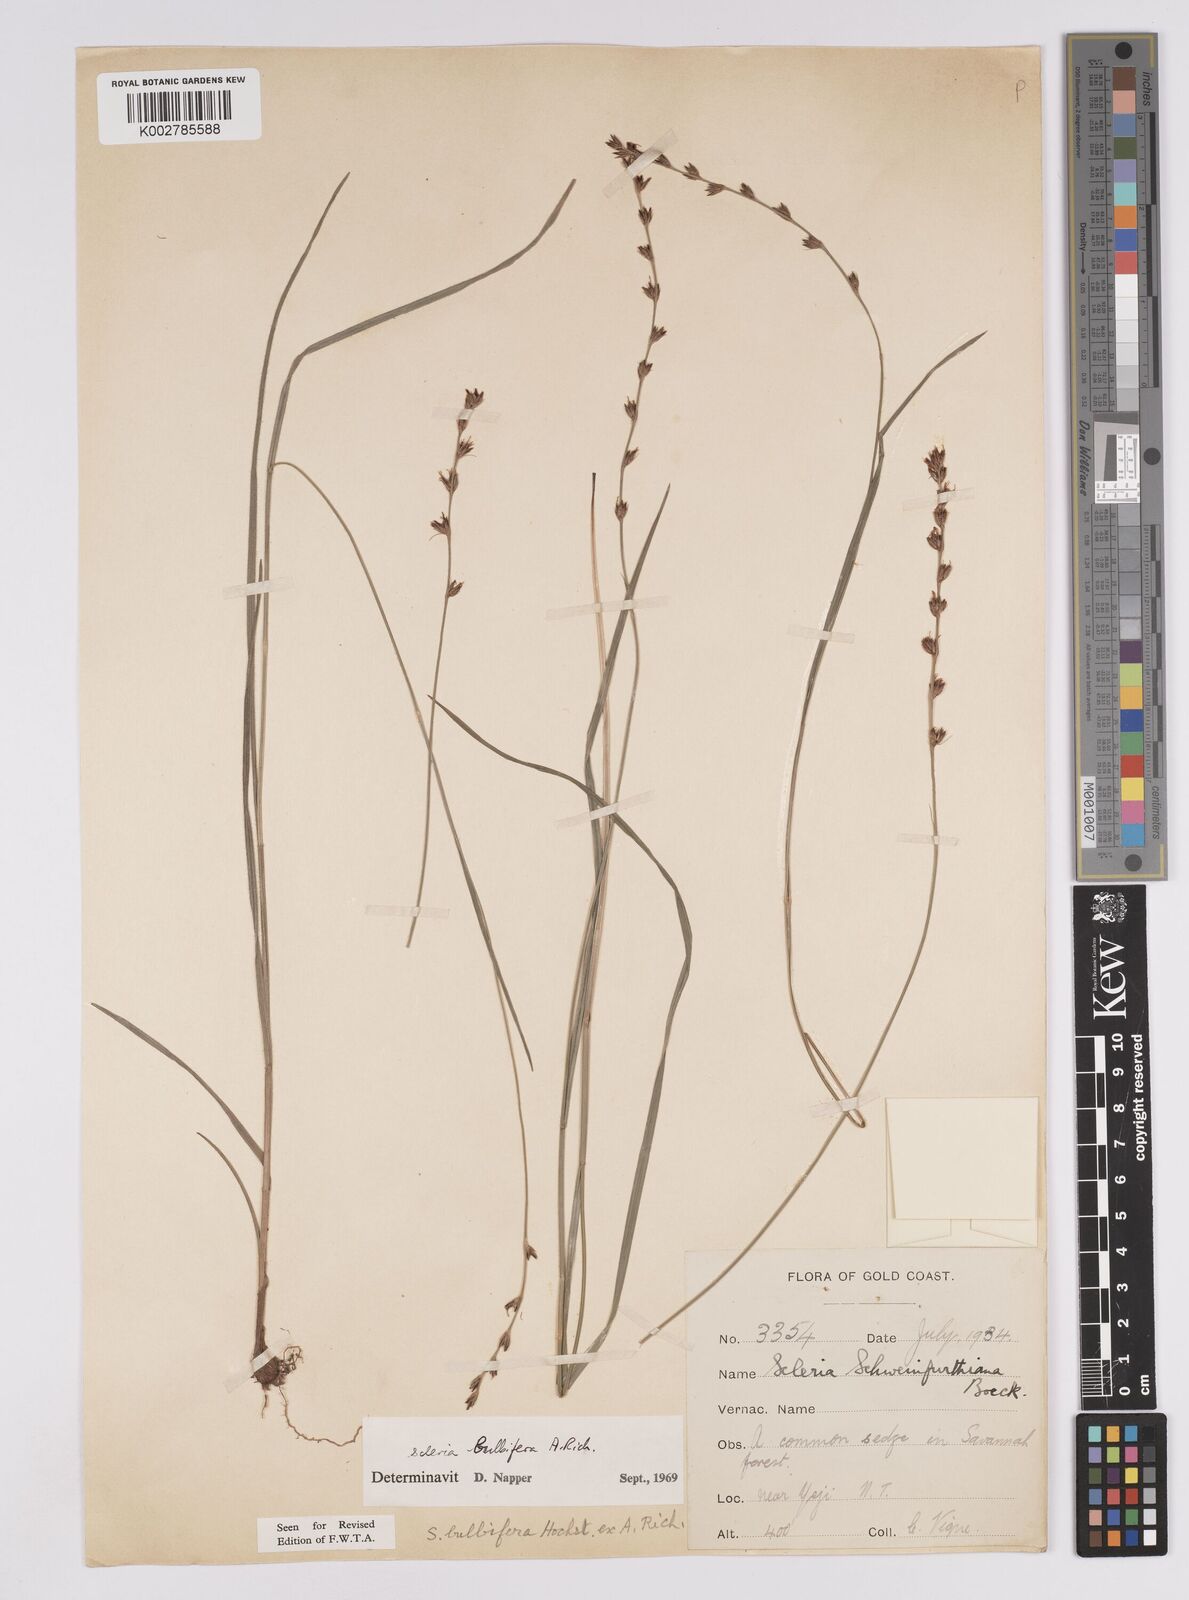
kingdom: Plantae
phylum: Tracheophyta
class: Liliopsida
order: Poales
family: Cyperaceae
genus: Scleria
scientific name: Scleria bulbifera
